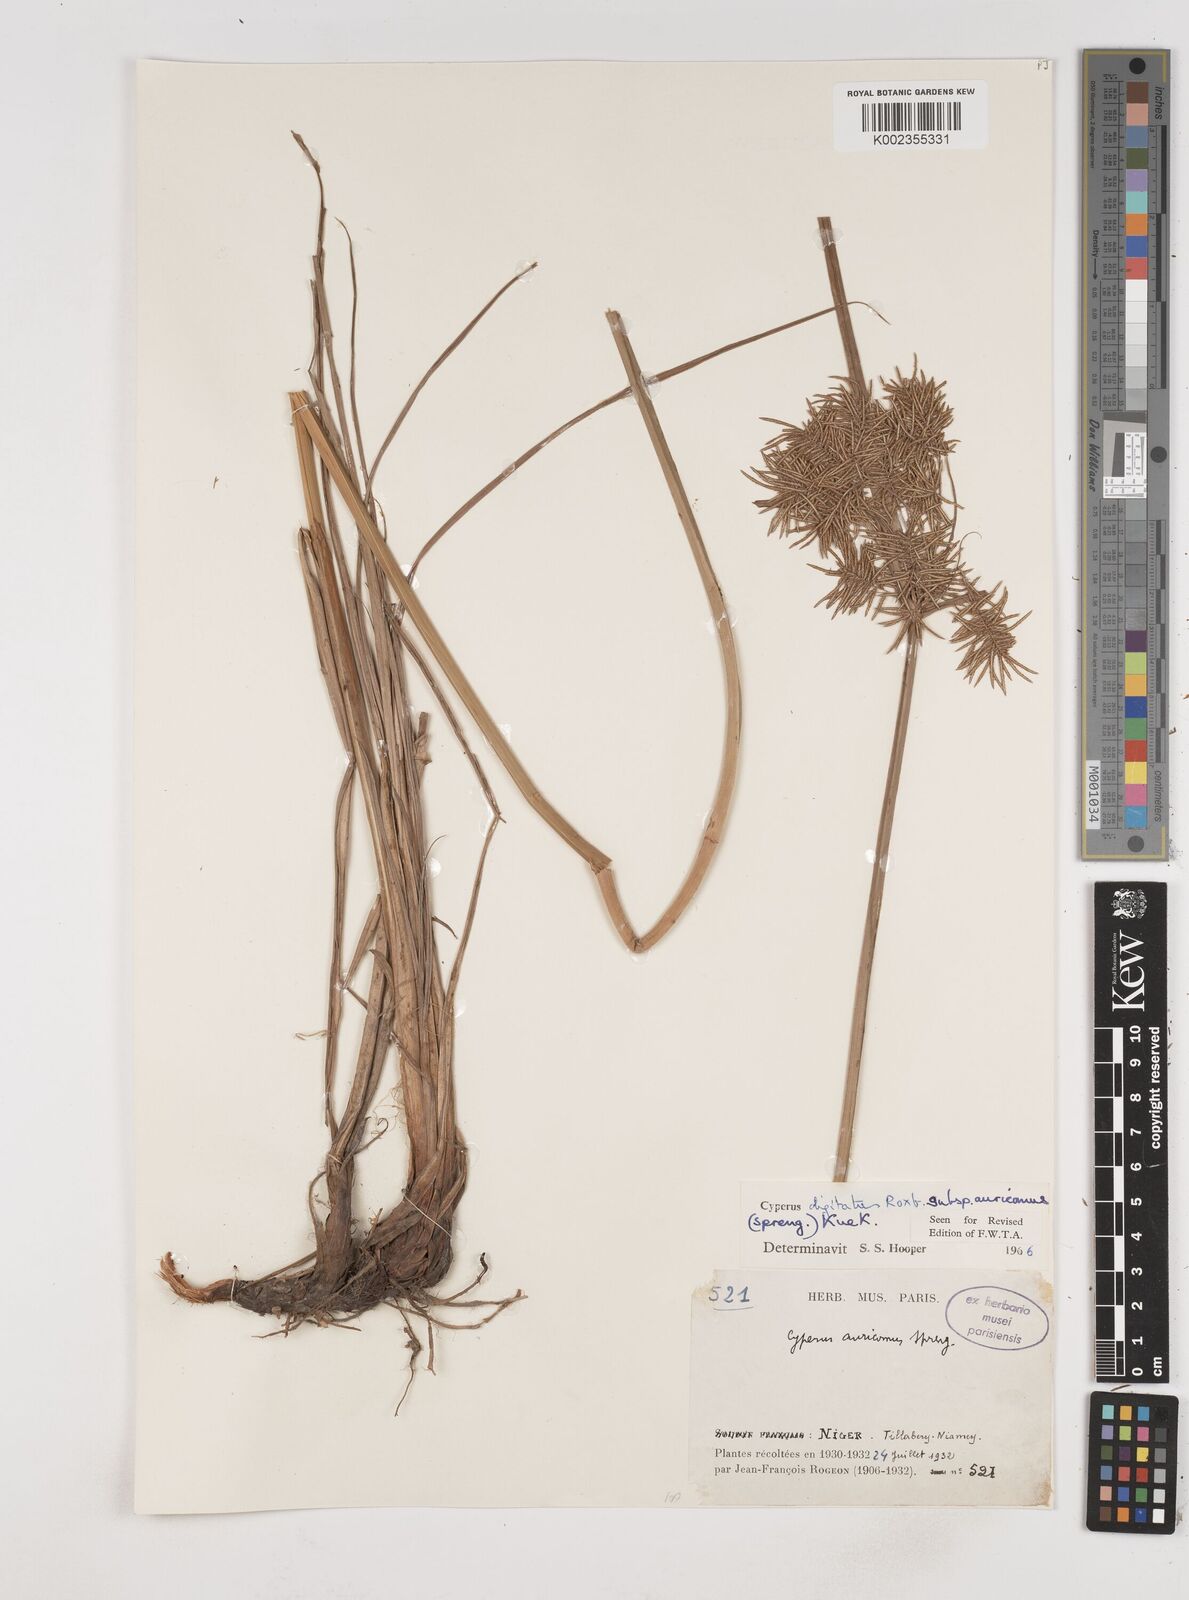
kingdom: Plantae
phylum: Tracheophyta
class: Liliopsida
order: Poales
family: Cyperaceae
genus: Cyperus
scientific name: Cyperus digitatus
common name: Finger flatsedge
